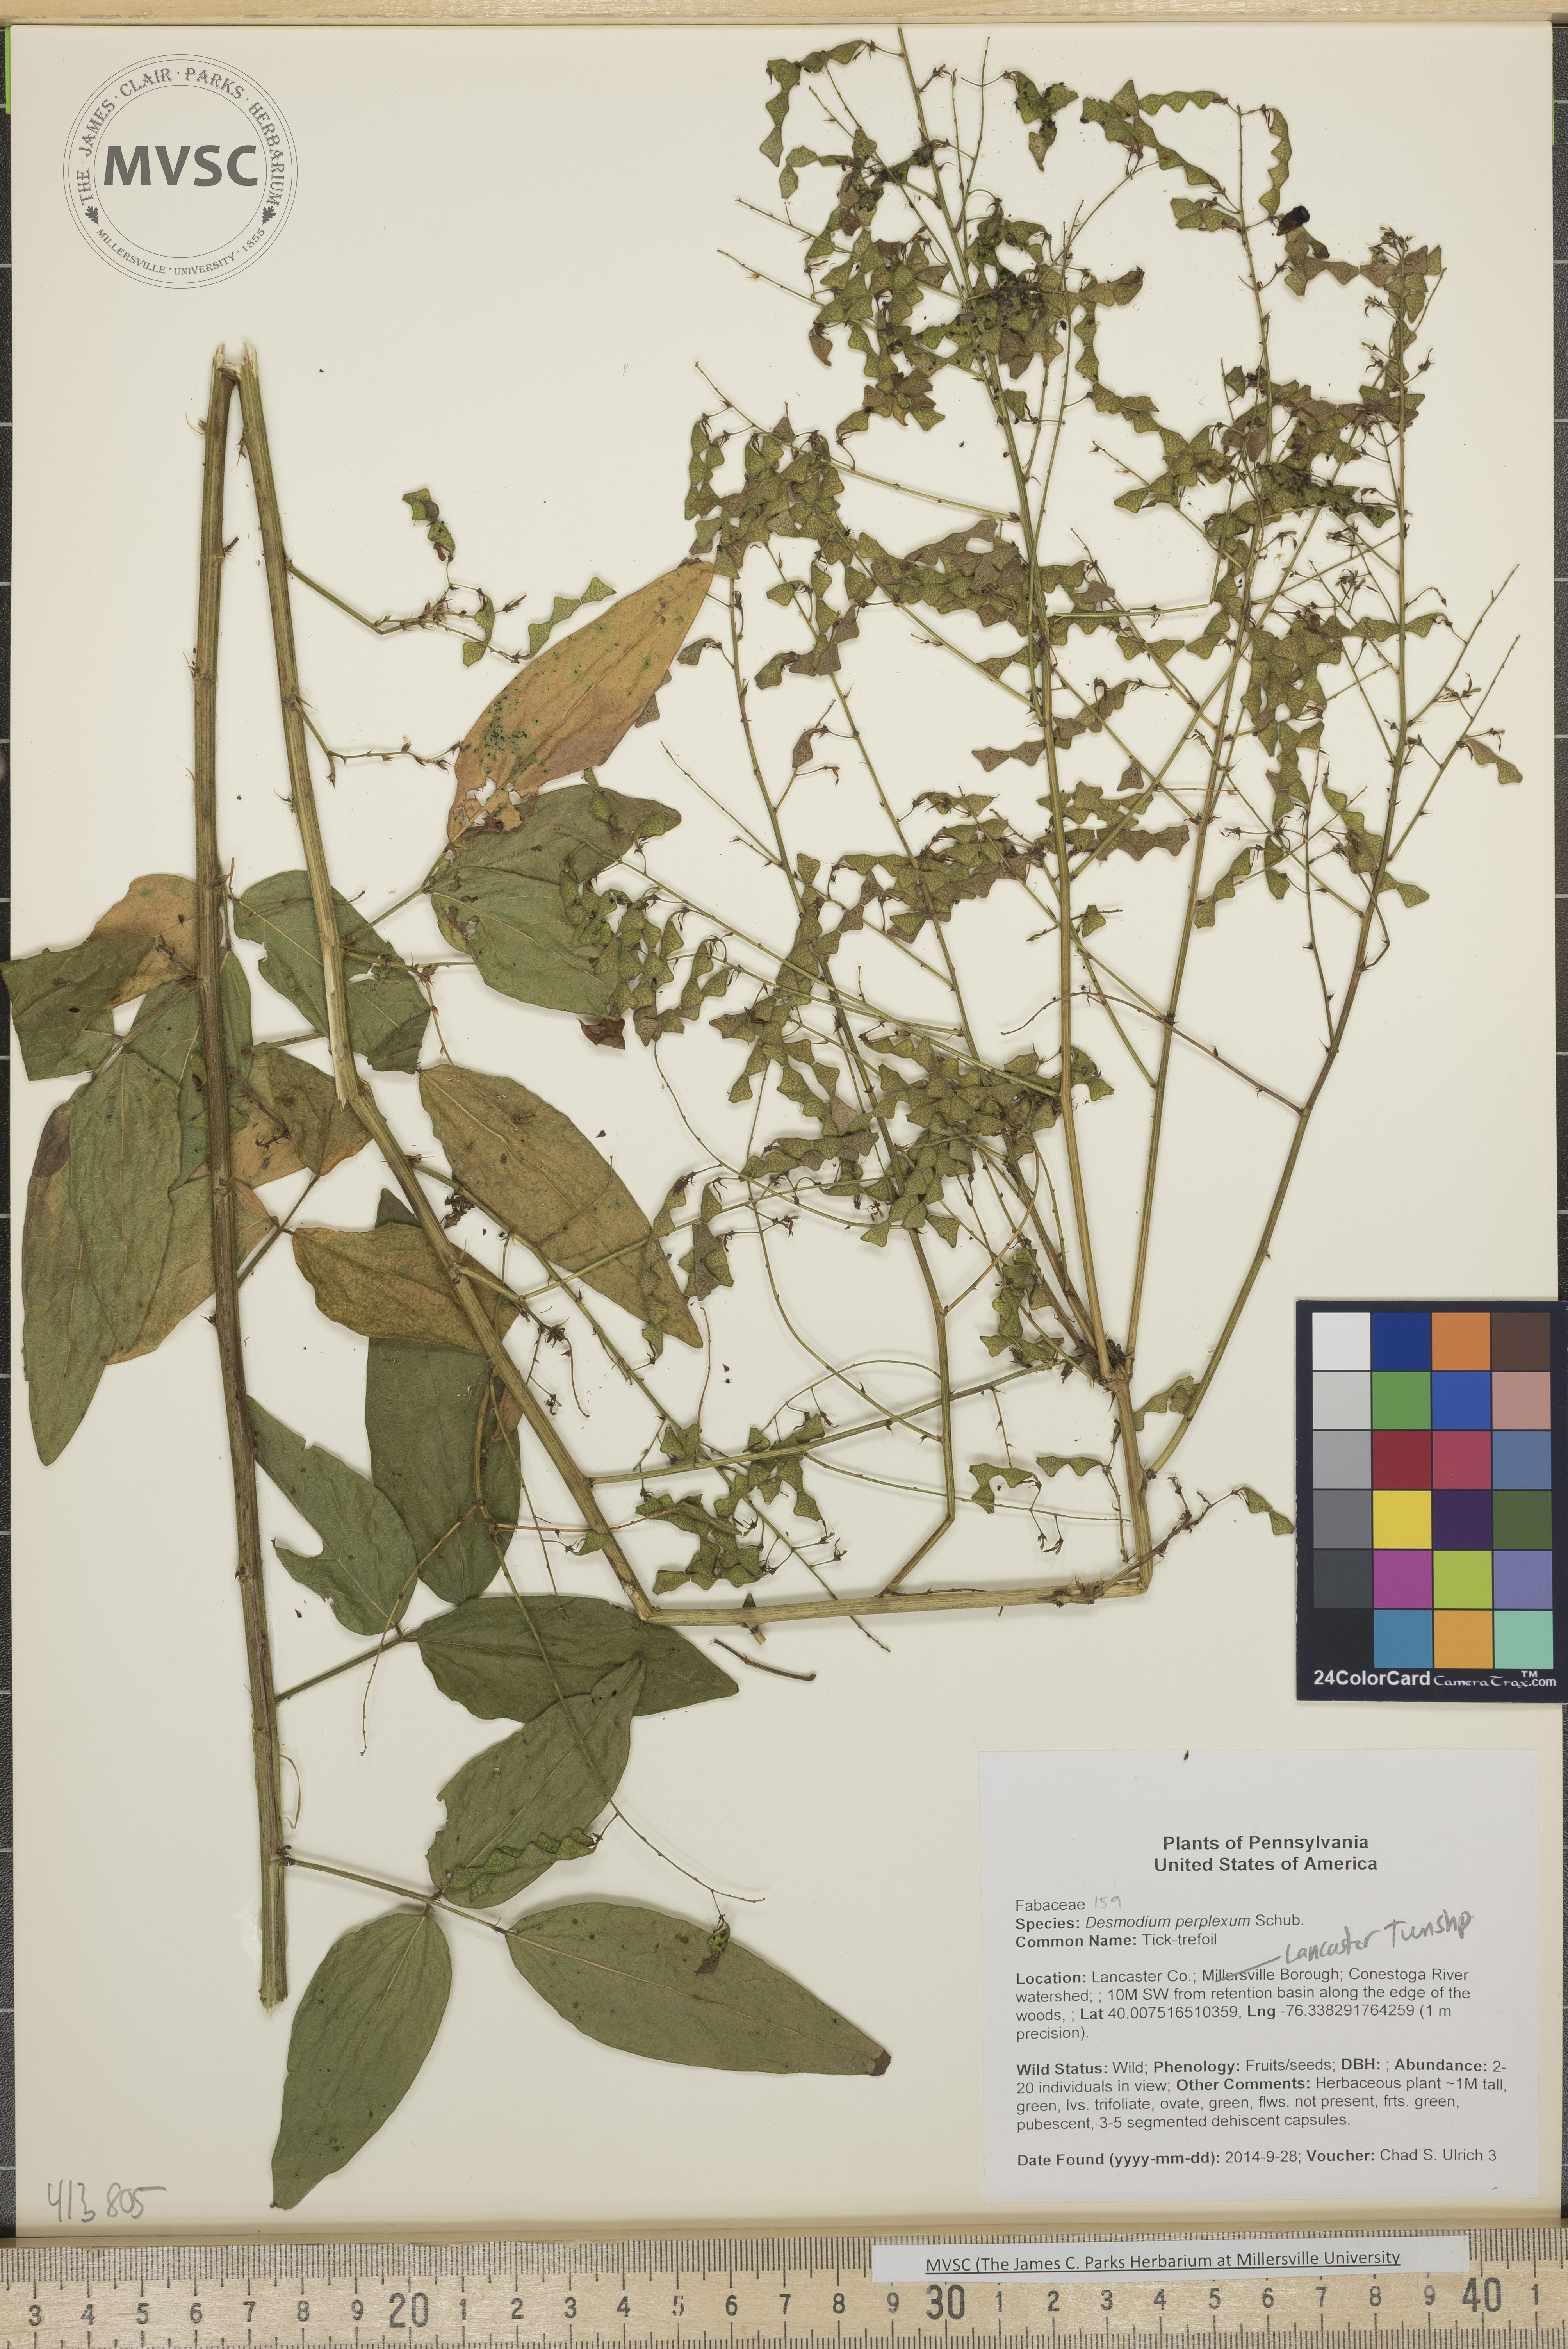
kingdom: Plantae
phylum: Tracheophyta
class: Magnoliopsida
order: Fabales
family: Fabaceae
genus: Desmodium
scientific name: Desmodium perplexum
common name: Tick-trefoil
